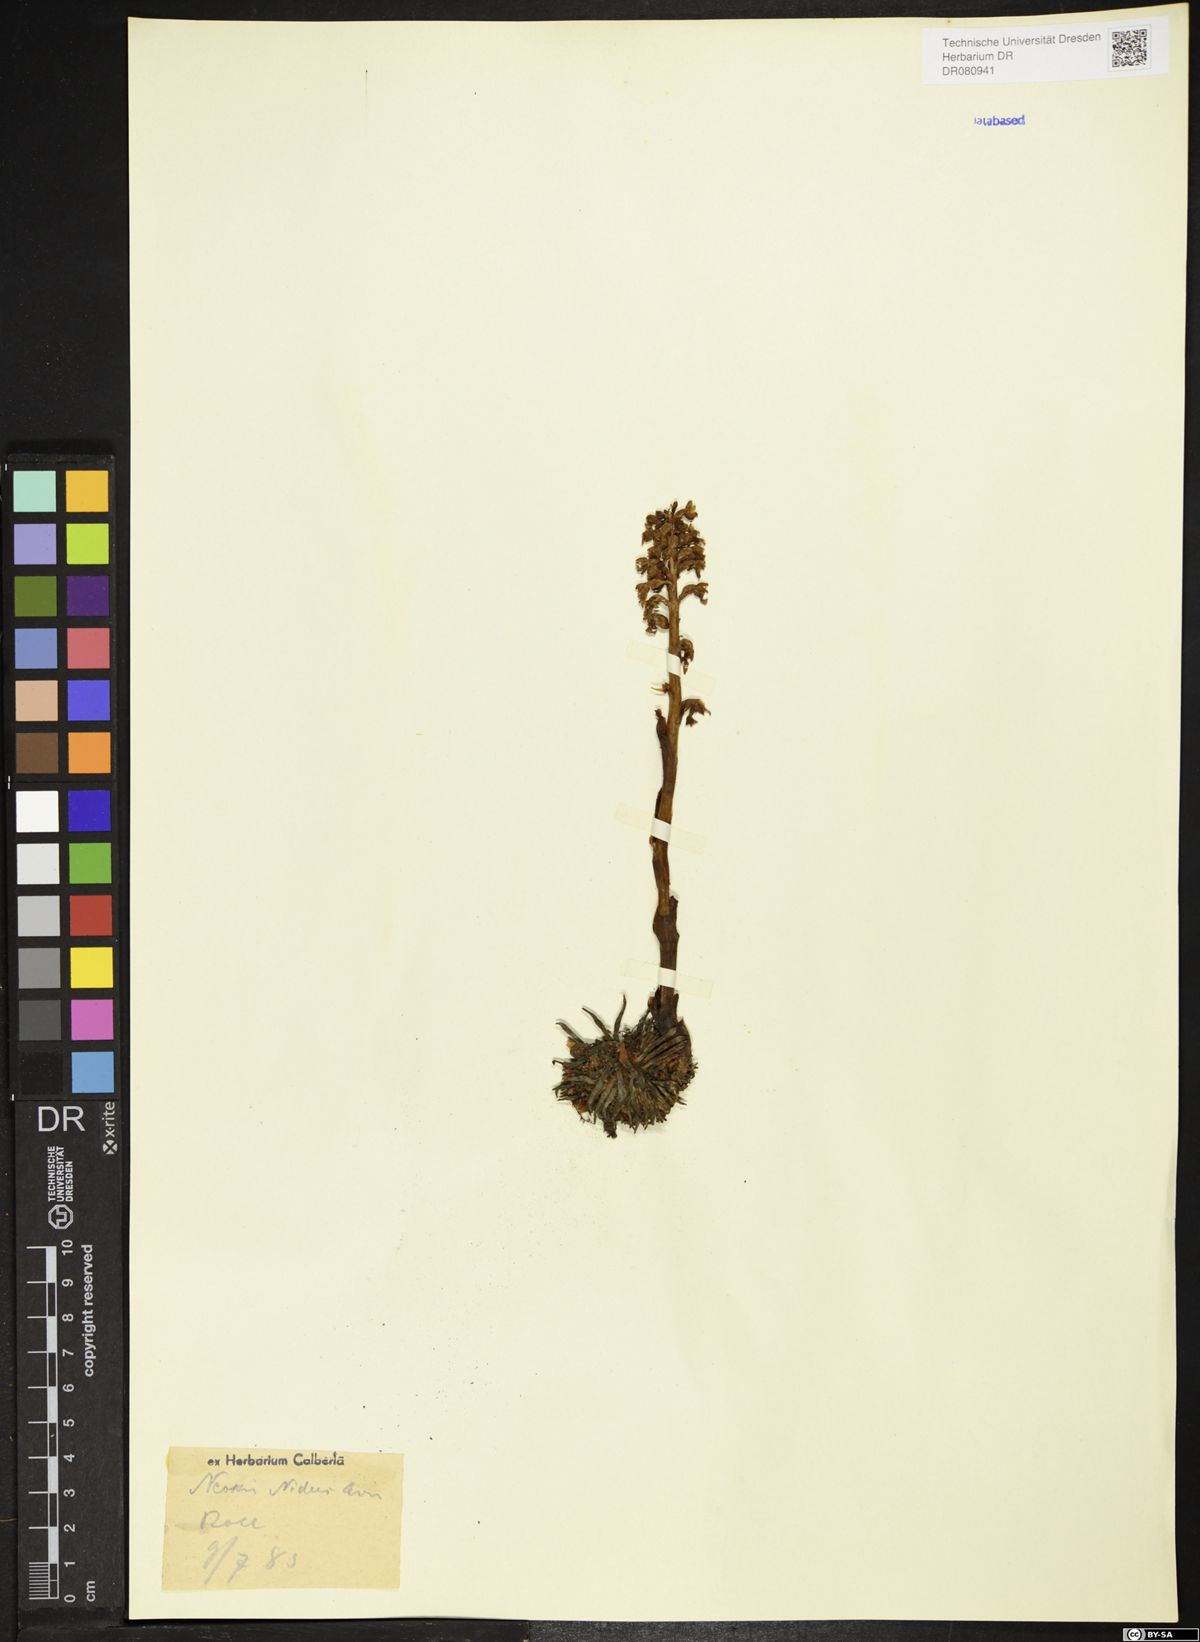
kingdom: Plantae
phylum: Tracheophyta
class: Liliopsida
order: Asparagales
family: Orchidaceae
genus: Neottia
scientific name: Neottia nidus-avis
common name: Bird's-nest orchid
